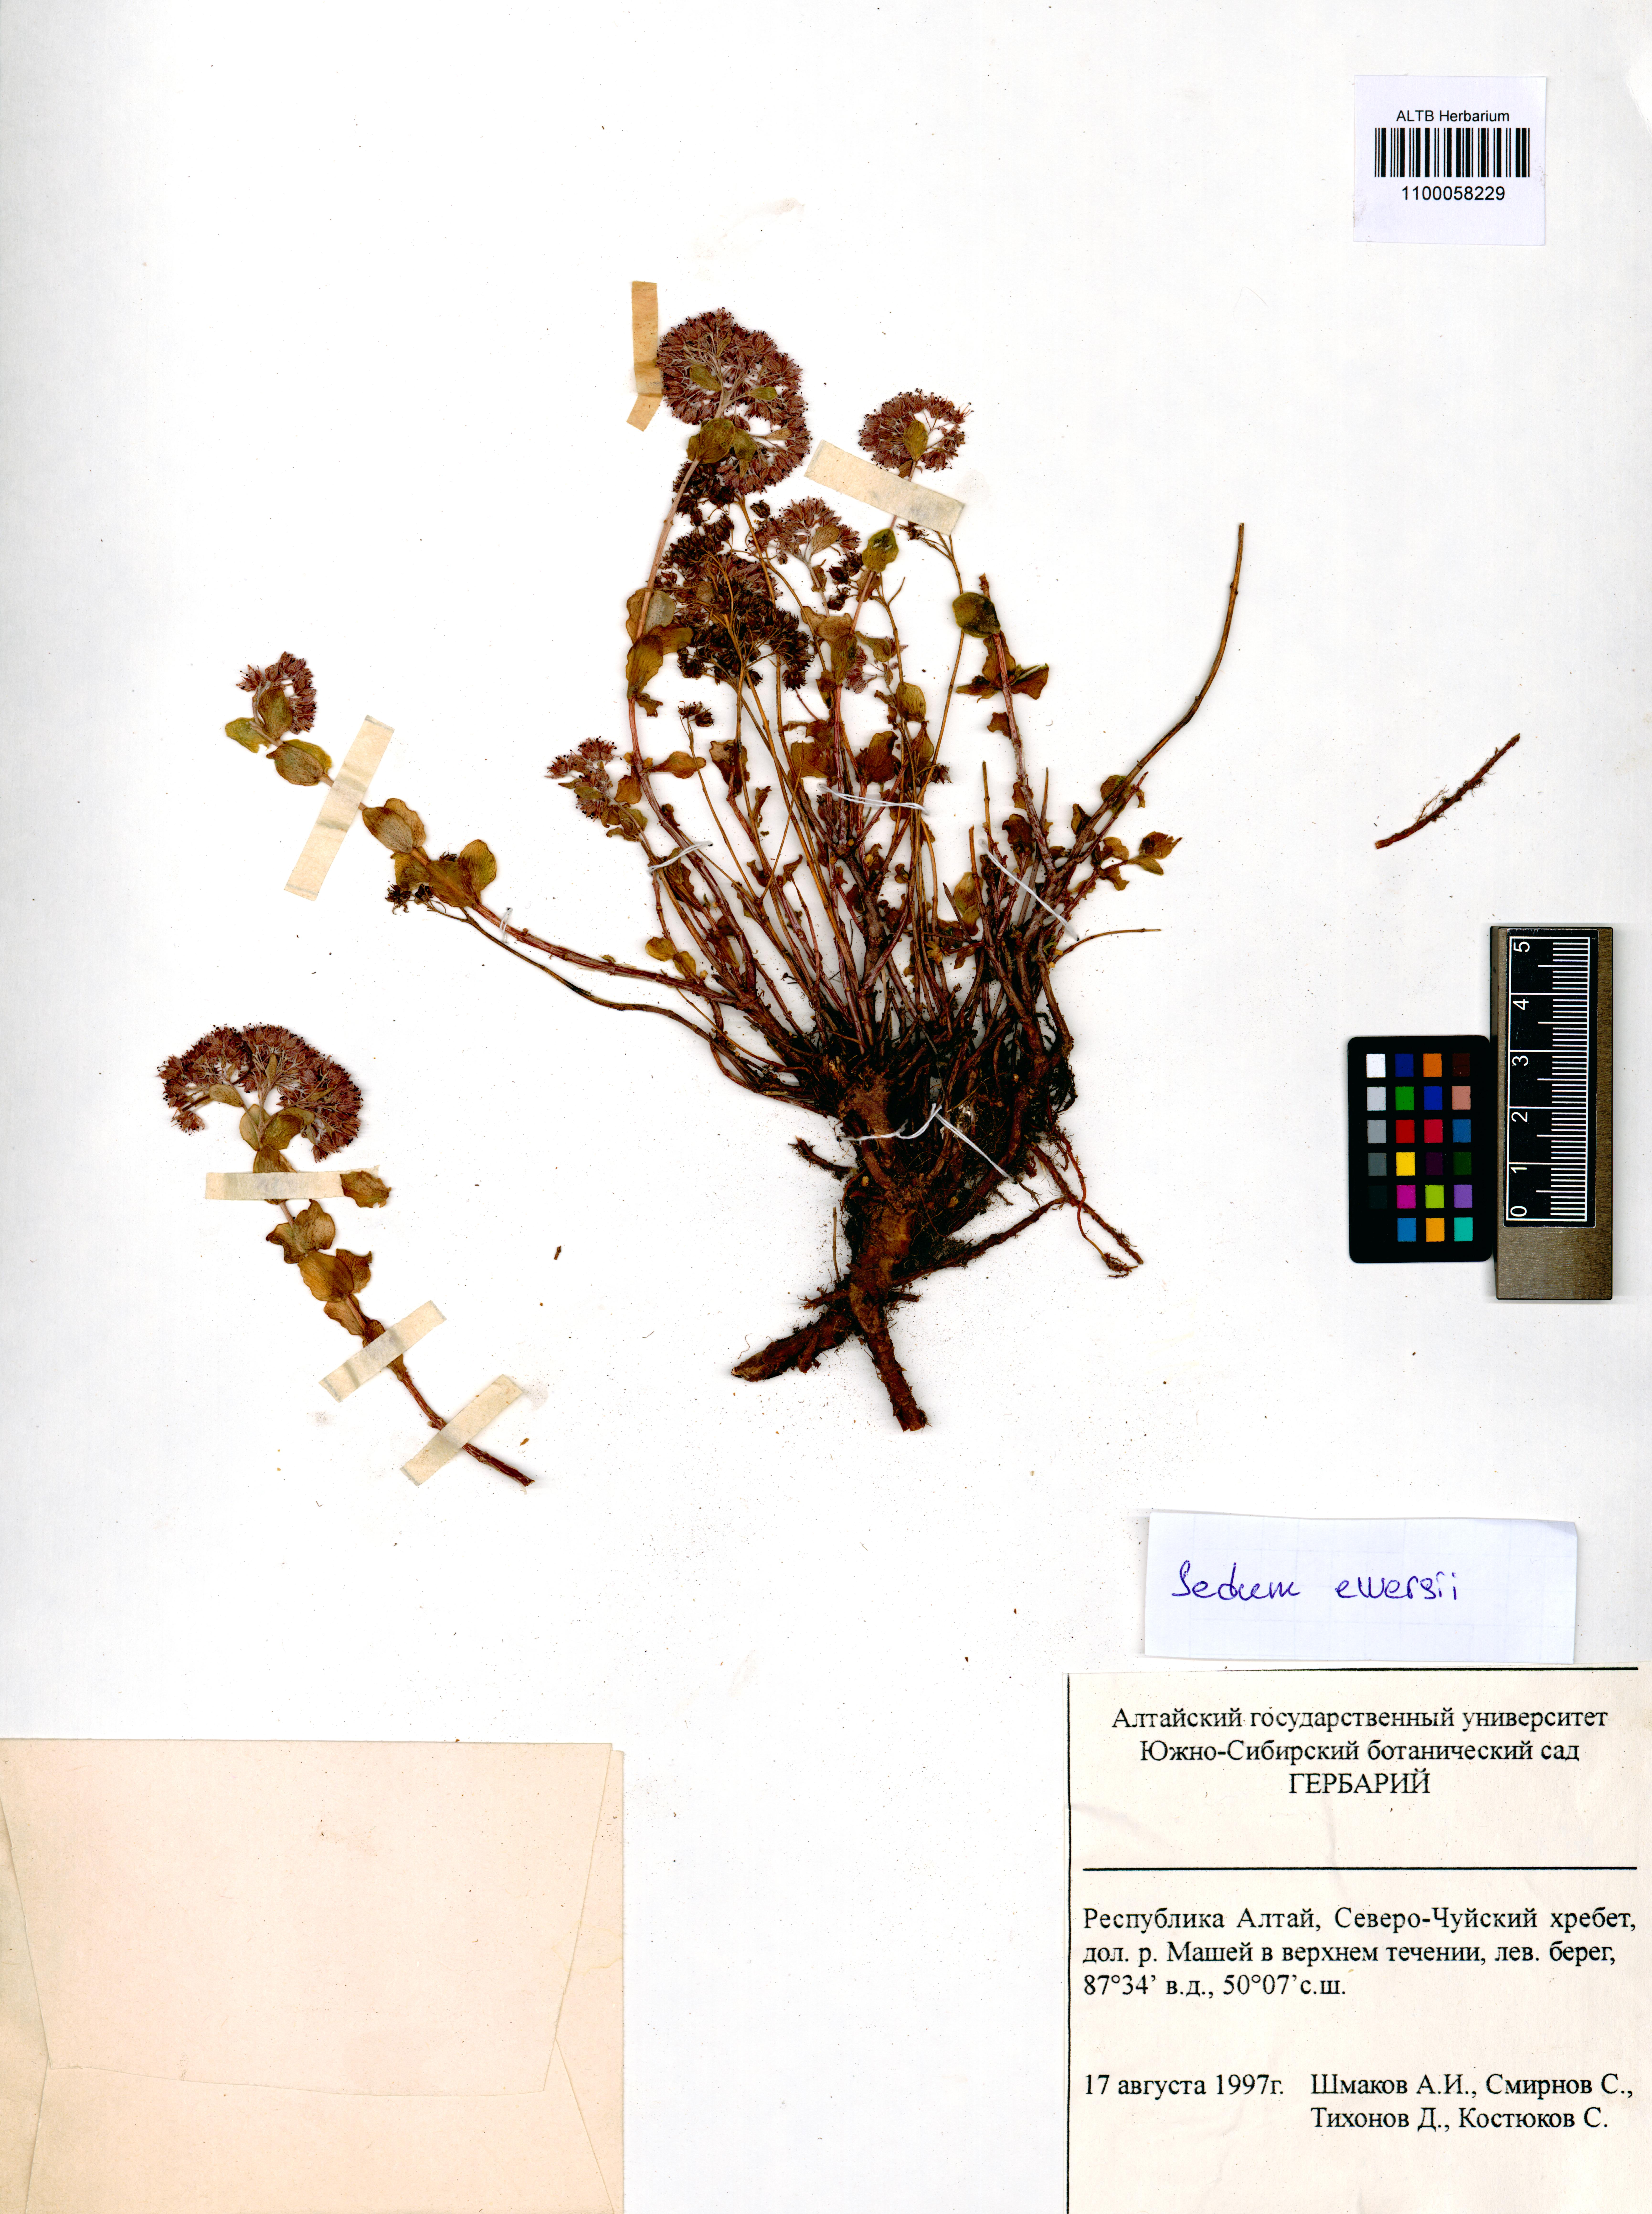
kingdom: Plantae
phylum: Tracheophyta
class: Magnoliopsida
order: Saxifragales
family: Crassulaceae
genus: Hylotelephium
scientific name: Hylotelephium ewersii
